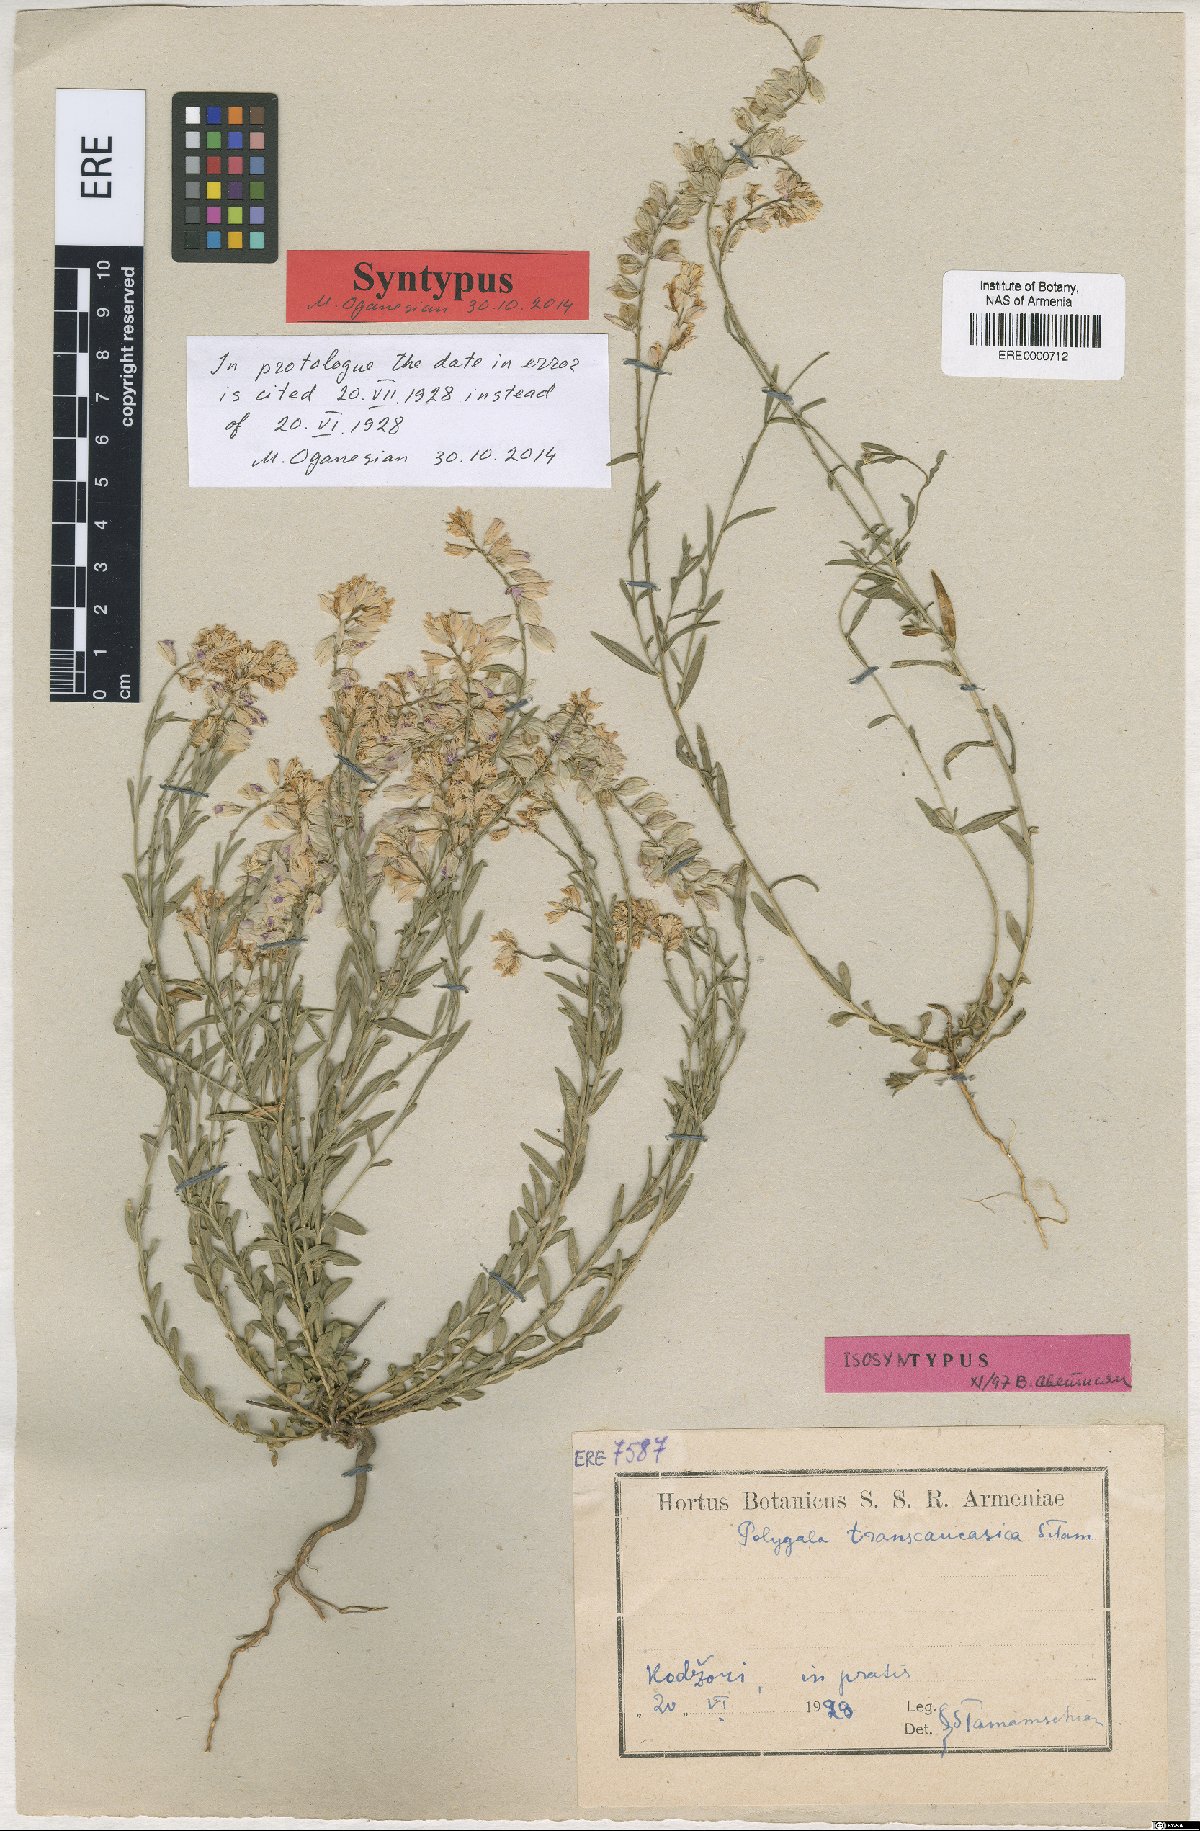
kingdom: Plantae
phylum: Tracheophyta
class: Magnoliopsida
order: Fabales
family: Polygalaceae
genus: Polygala
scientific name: Polygala transcaucasica
